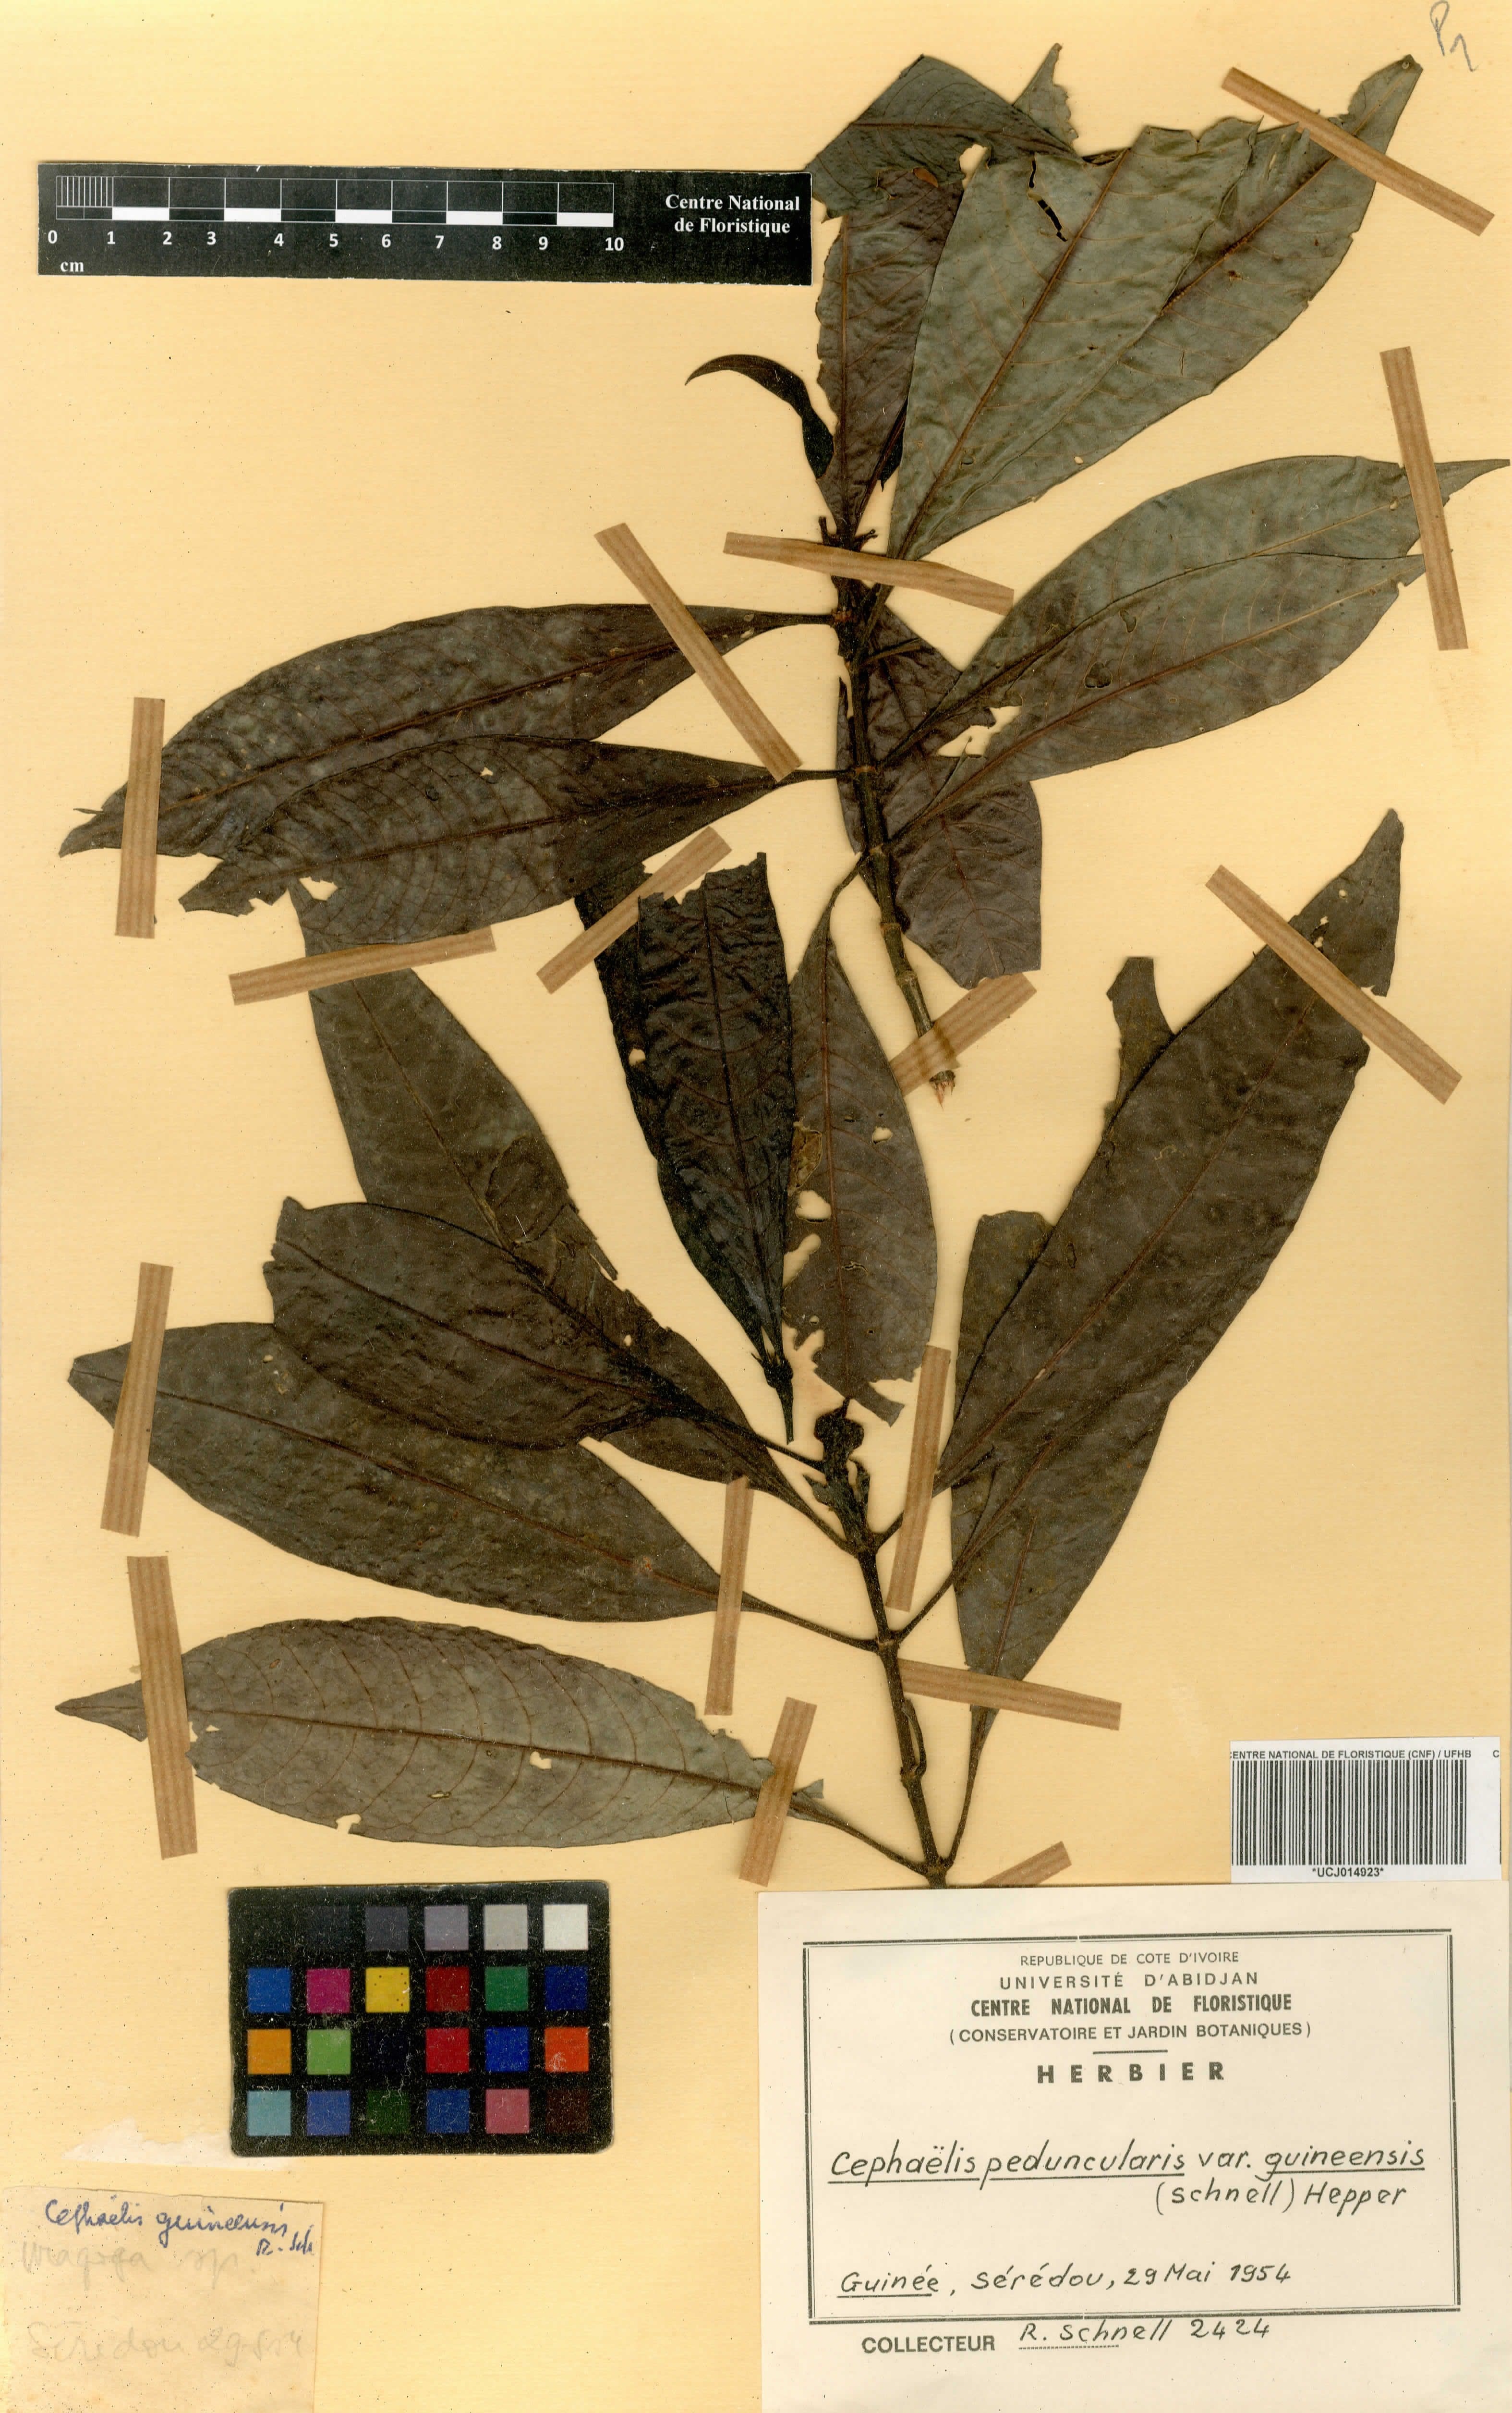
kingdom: Plantae
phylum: Tracheophyta
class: Magnoliopsida
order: Gentianales
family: Rubiaceae
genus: Psychotria
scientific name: Psychotria peduncularis
